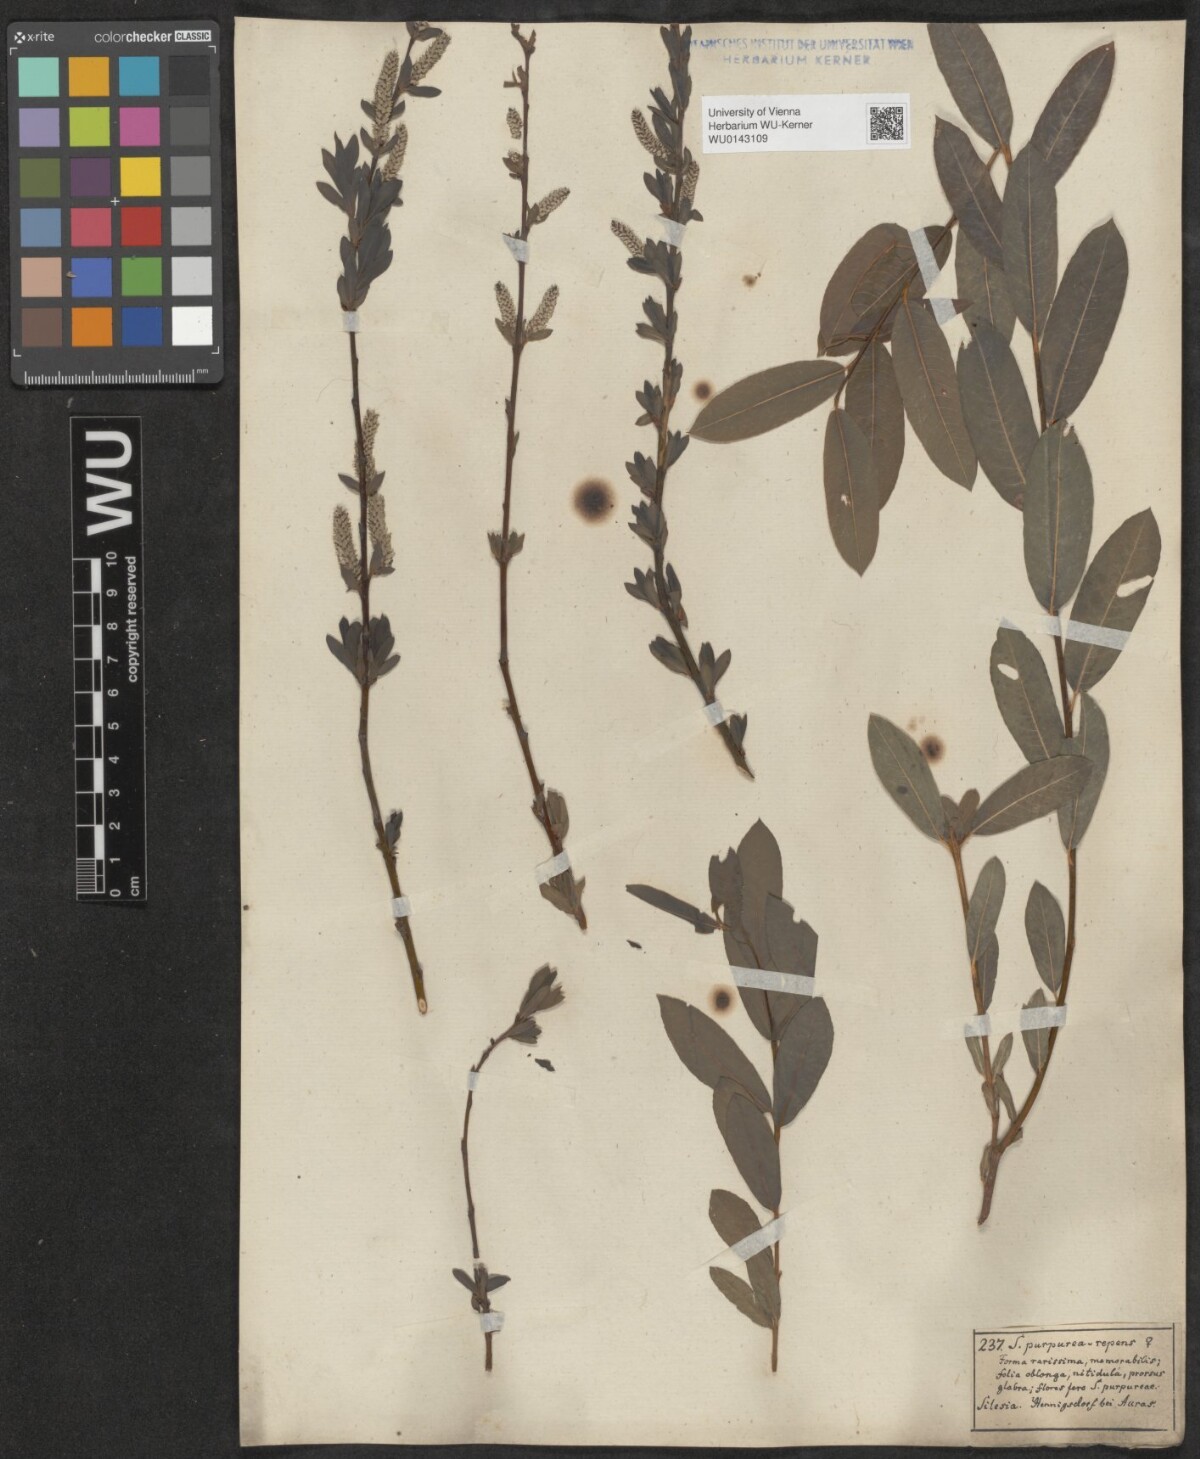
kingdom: Plantae
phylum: Tracheophyta
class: Magnoliopsida
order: Malpighiales
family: Salicaceae
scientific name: Salicaceae
